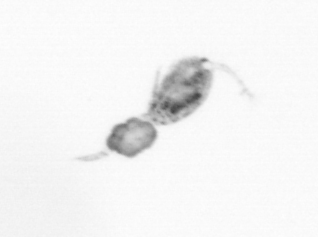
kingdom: Animalia
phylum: Arthropoda
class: Copepoda
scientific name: Copepoda
